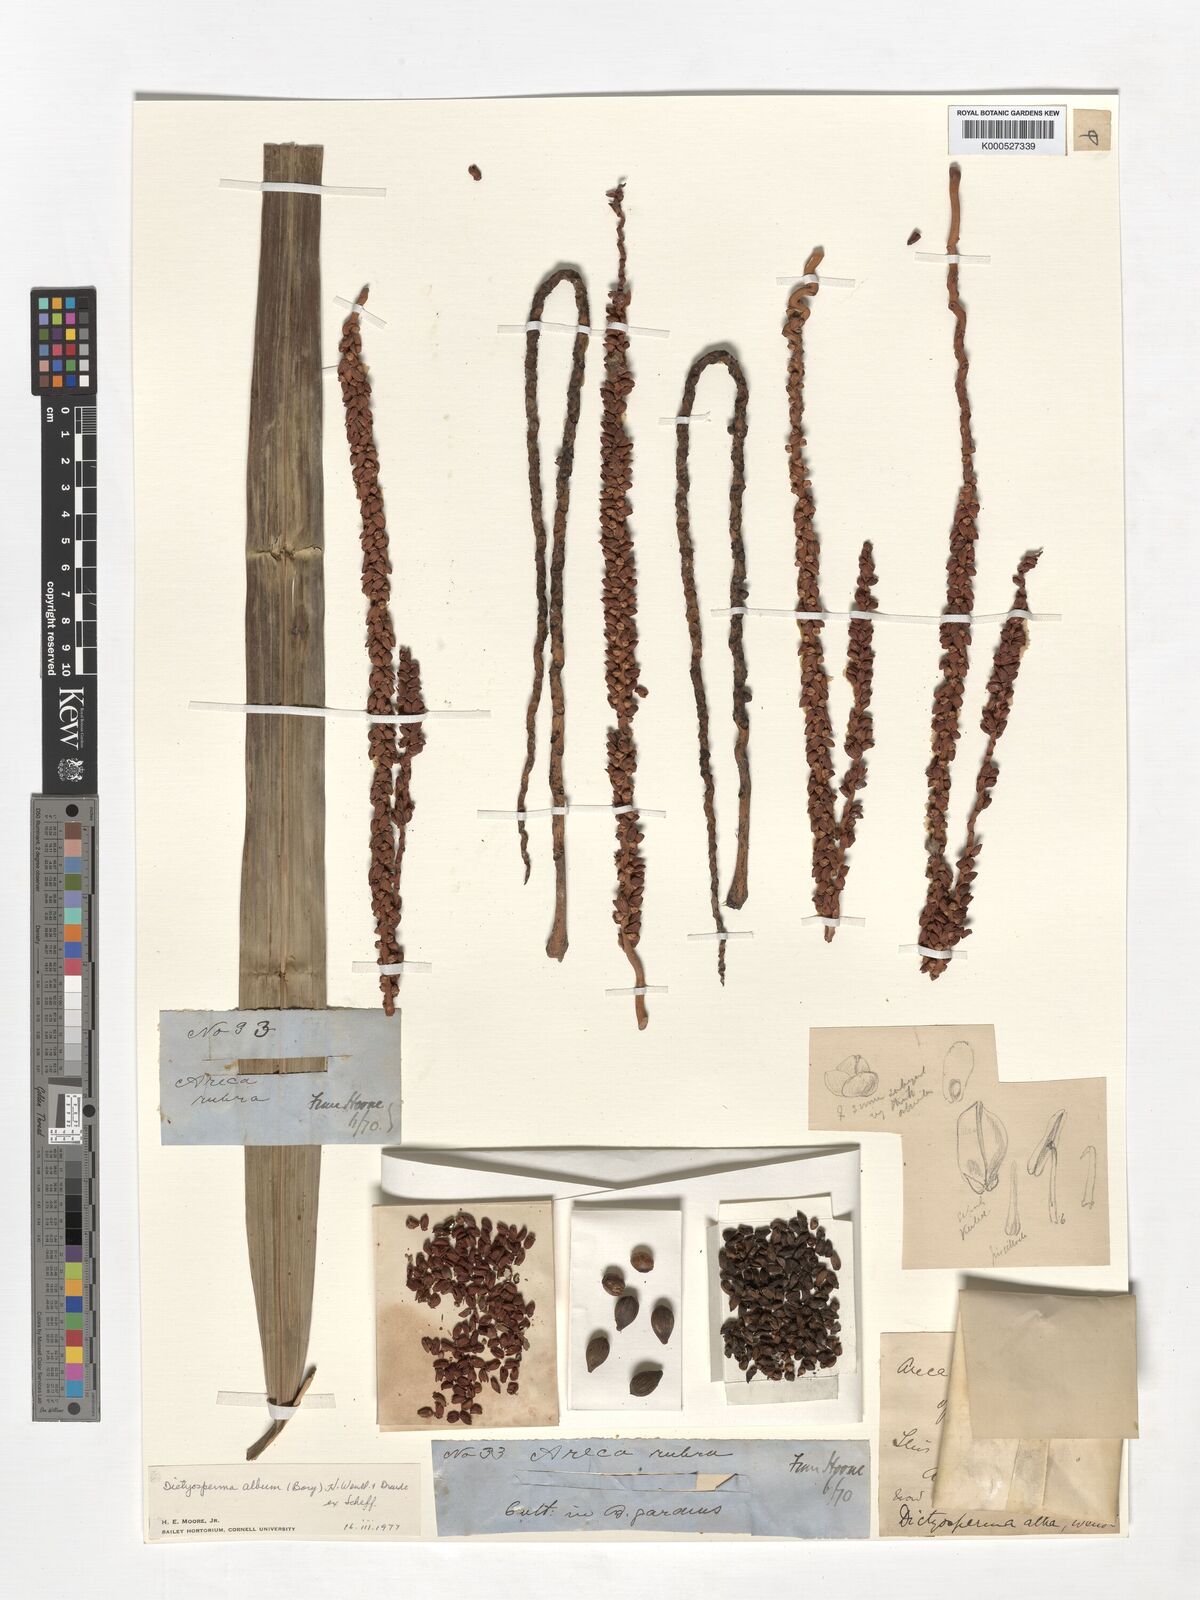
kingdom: Plantae
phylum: Tracheophyta
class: Liliopsida
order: Arecales
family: Arecaceae
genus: Dictyosperma
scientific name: Dictyosperma album
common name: Common princess palm
